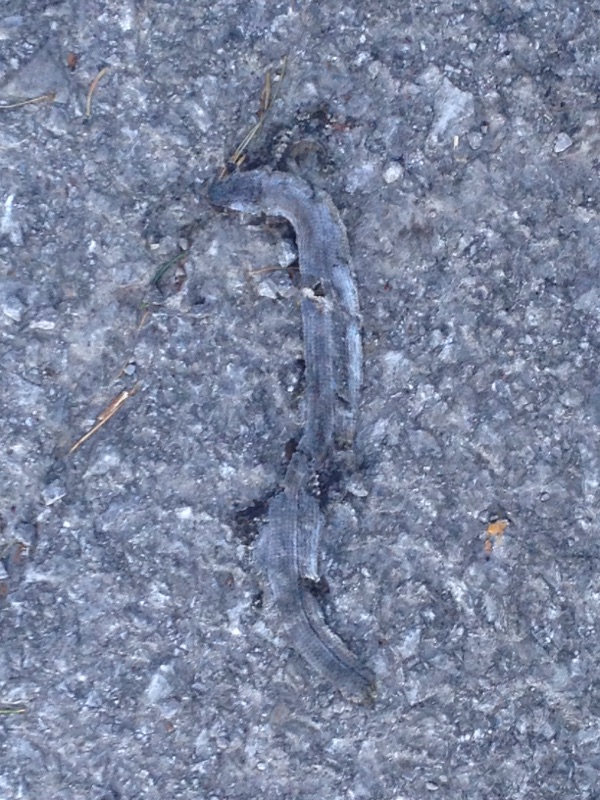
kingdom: Animalia
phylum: Chordata
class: Squamata
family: Anguidae
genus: Anguis
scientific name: Anguis fragilis
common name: Slow worm
